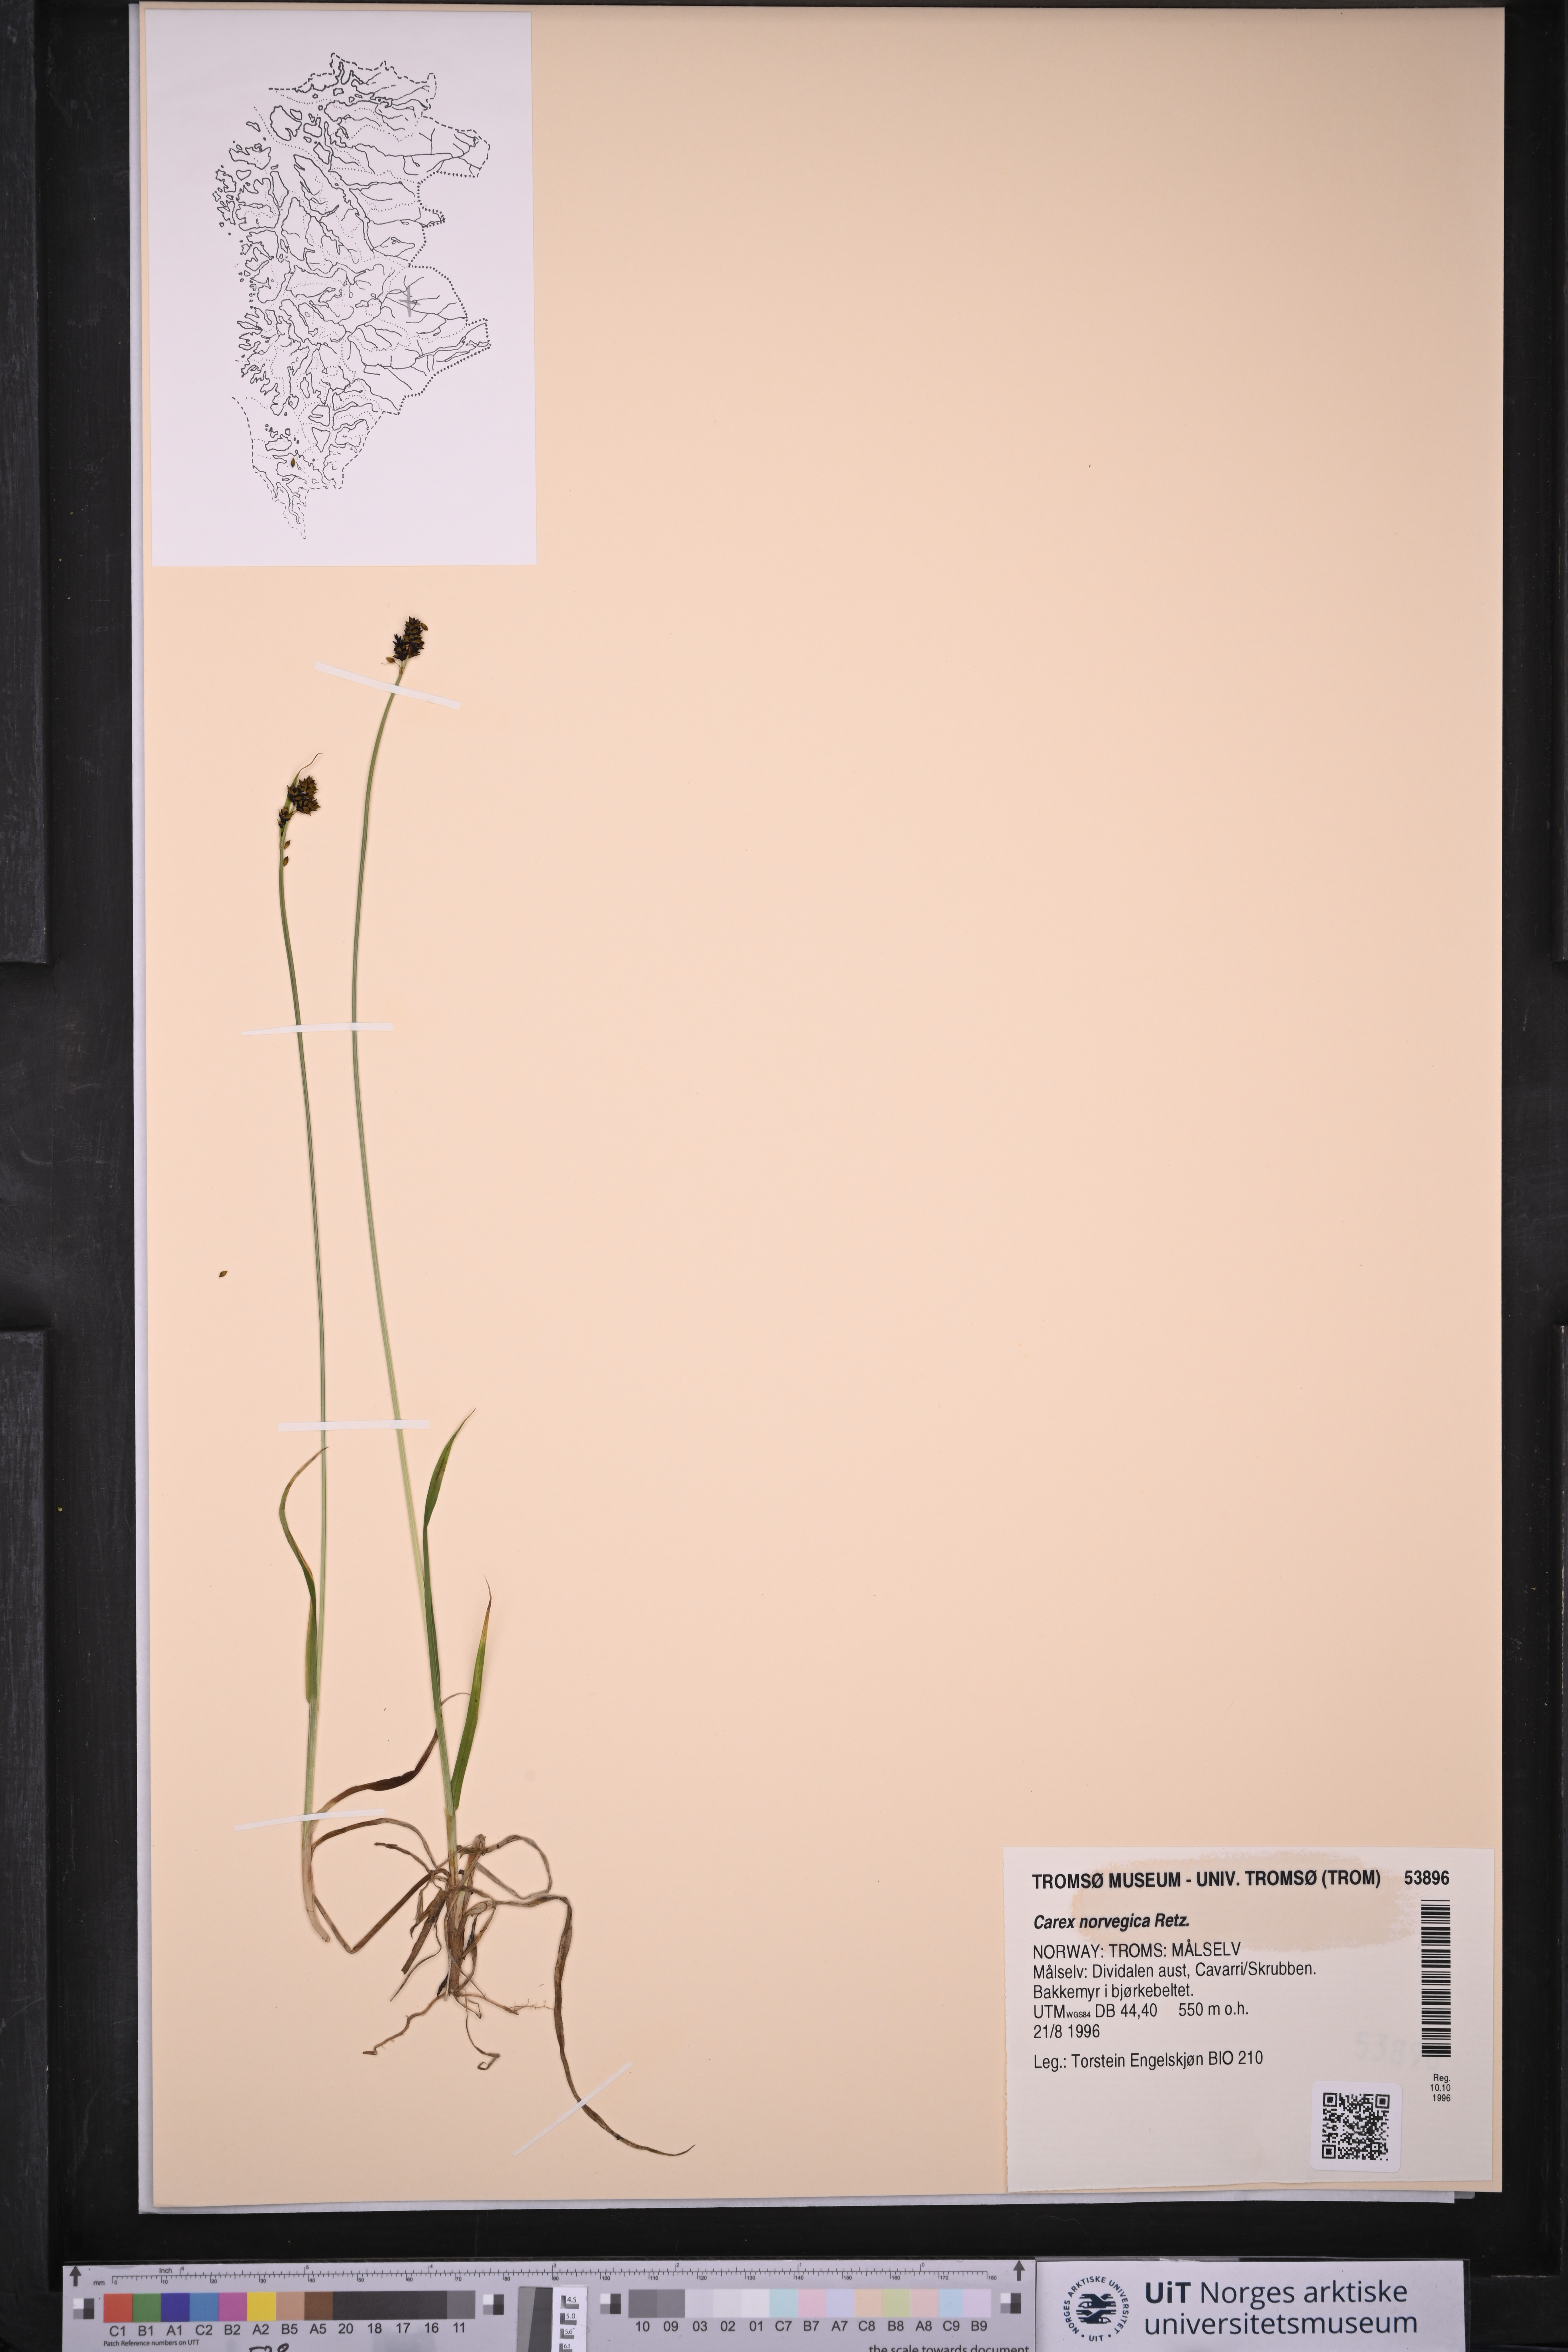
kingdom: Plantae
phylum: Tracheophyta
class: Liliopsida
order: Poales
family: Cyperaceae
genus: Carex
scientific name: Carex norvegica
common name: Close-headed alpine-sedge
